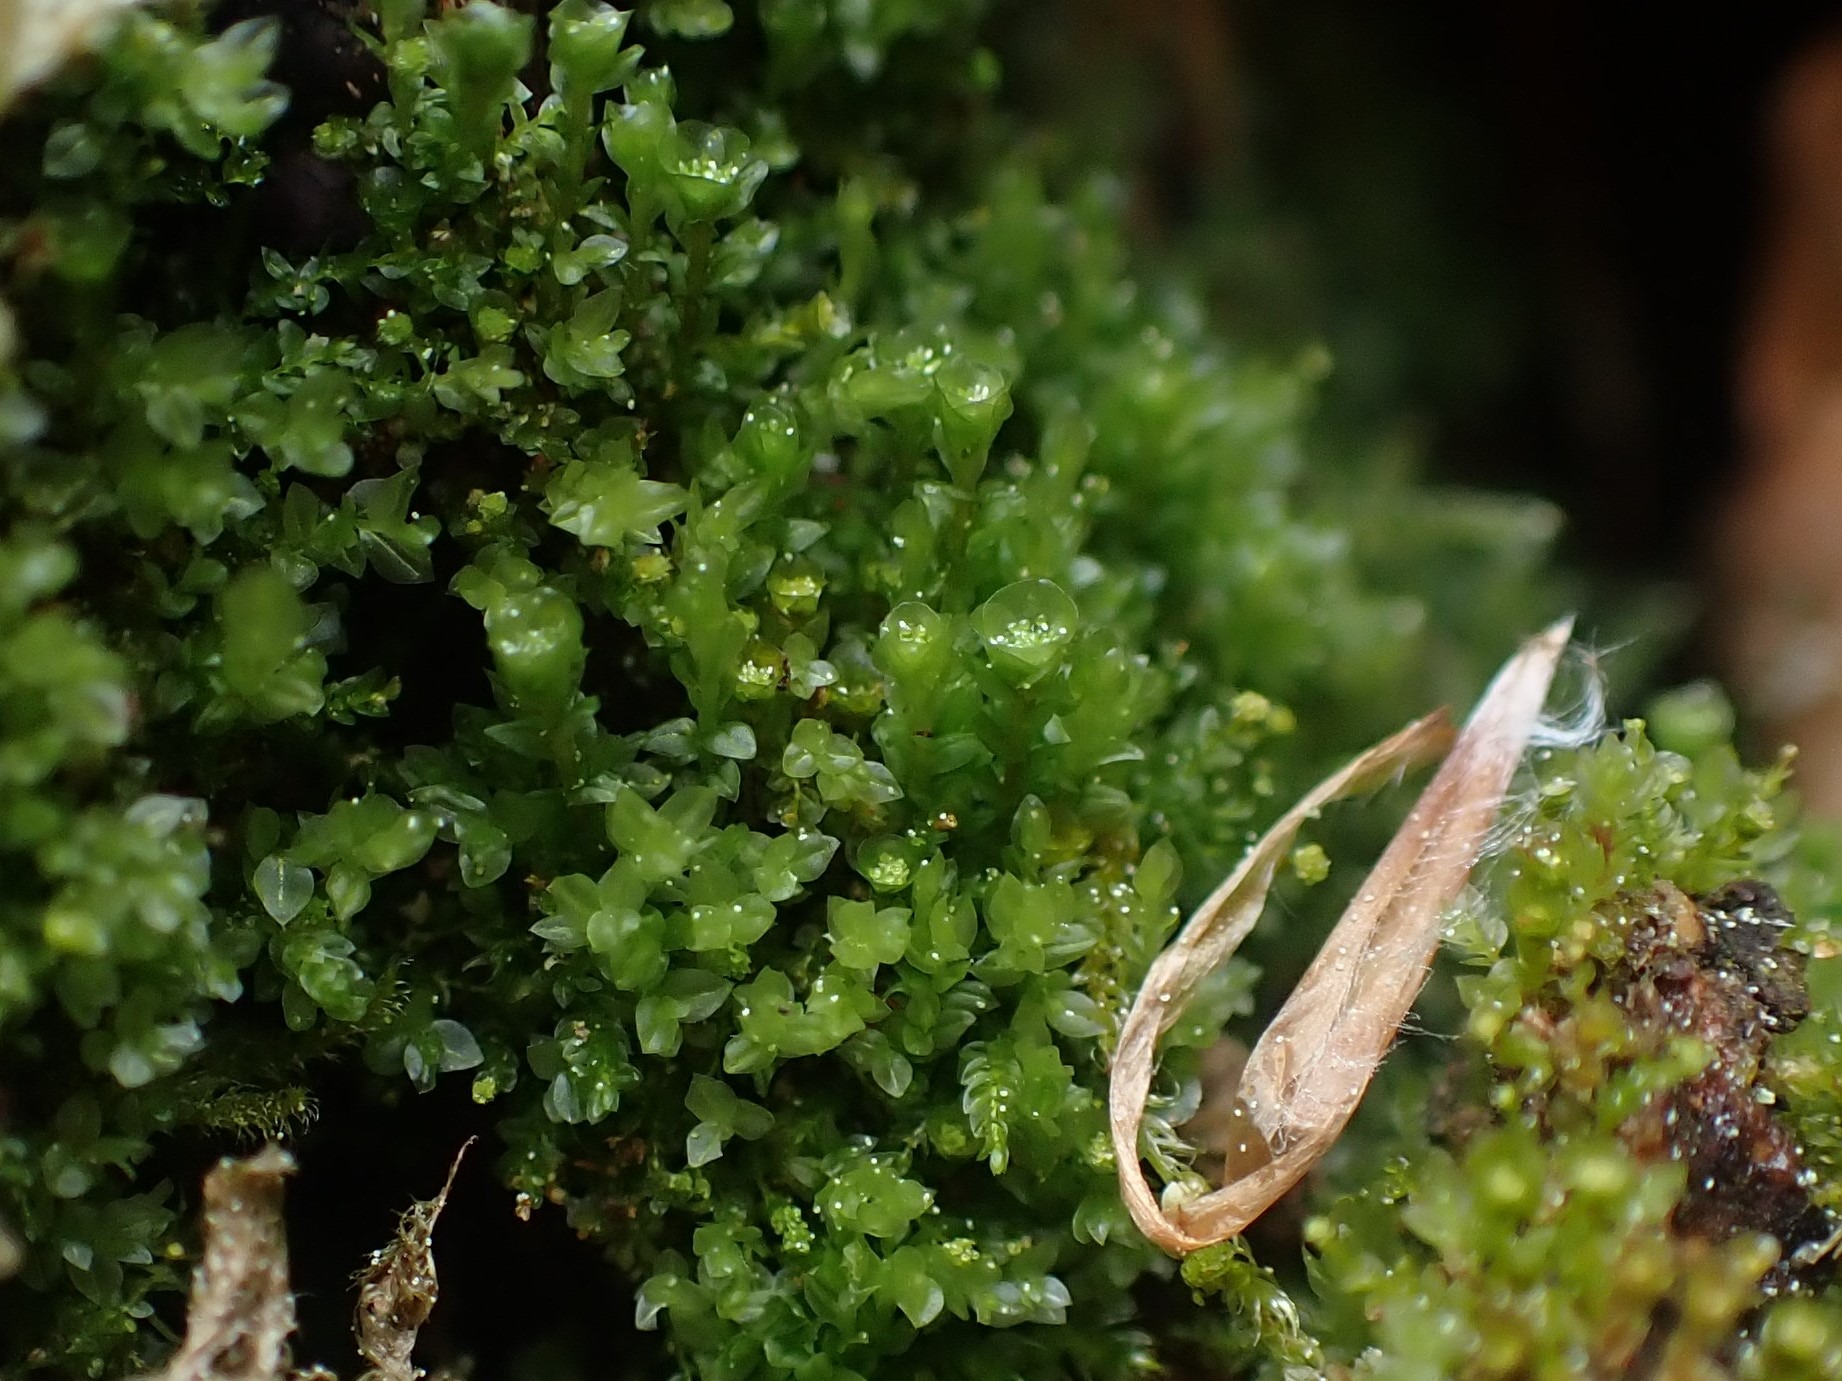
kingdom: Plantae
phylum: Bryophyta
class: Polytrichopsida
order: Tetraphidales
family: Tetraphidaceae
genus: Tetraphis
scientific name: Tetraphis pellucida
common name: Almindelig firtand
